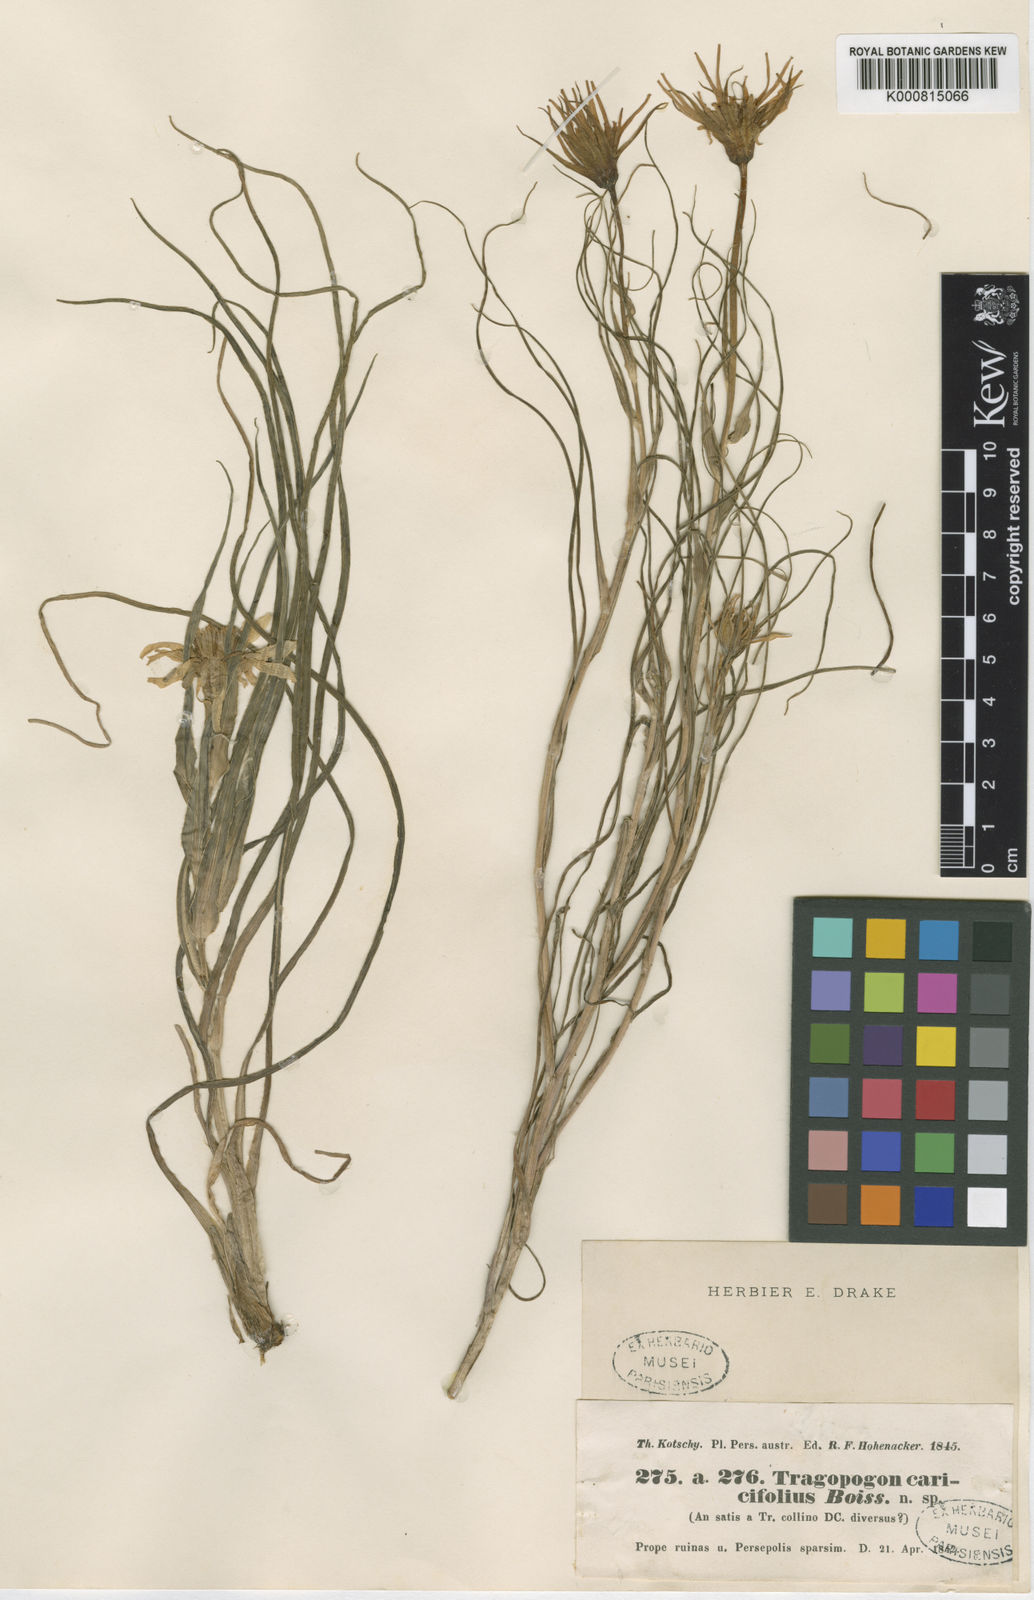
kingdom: Plantae
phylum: Tracheophyta
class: Magnoliopsida
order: Asterales
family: Asteraceae
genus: Tragopogon
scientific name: Tragopogon caricifolius
